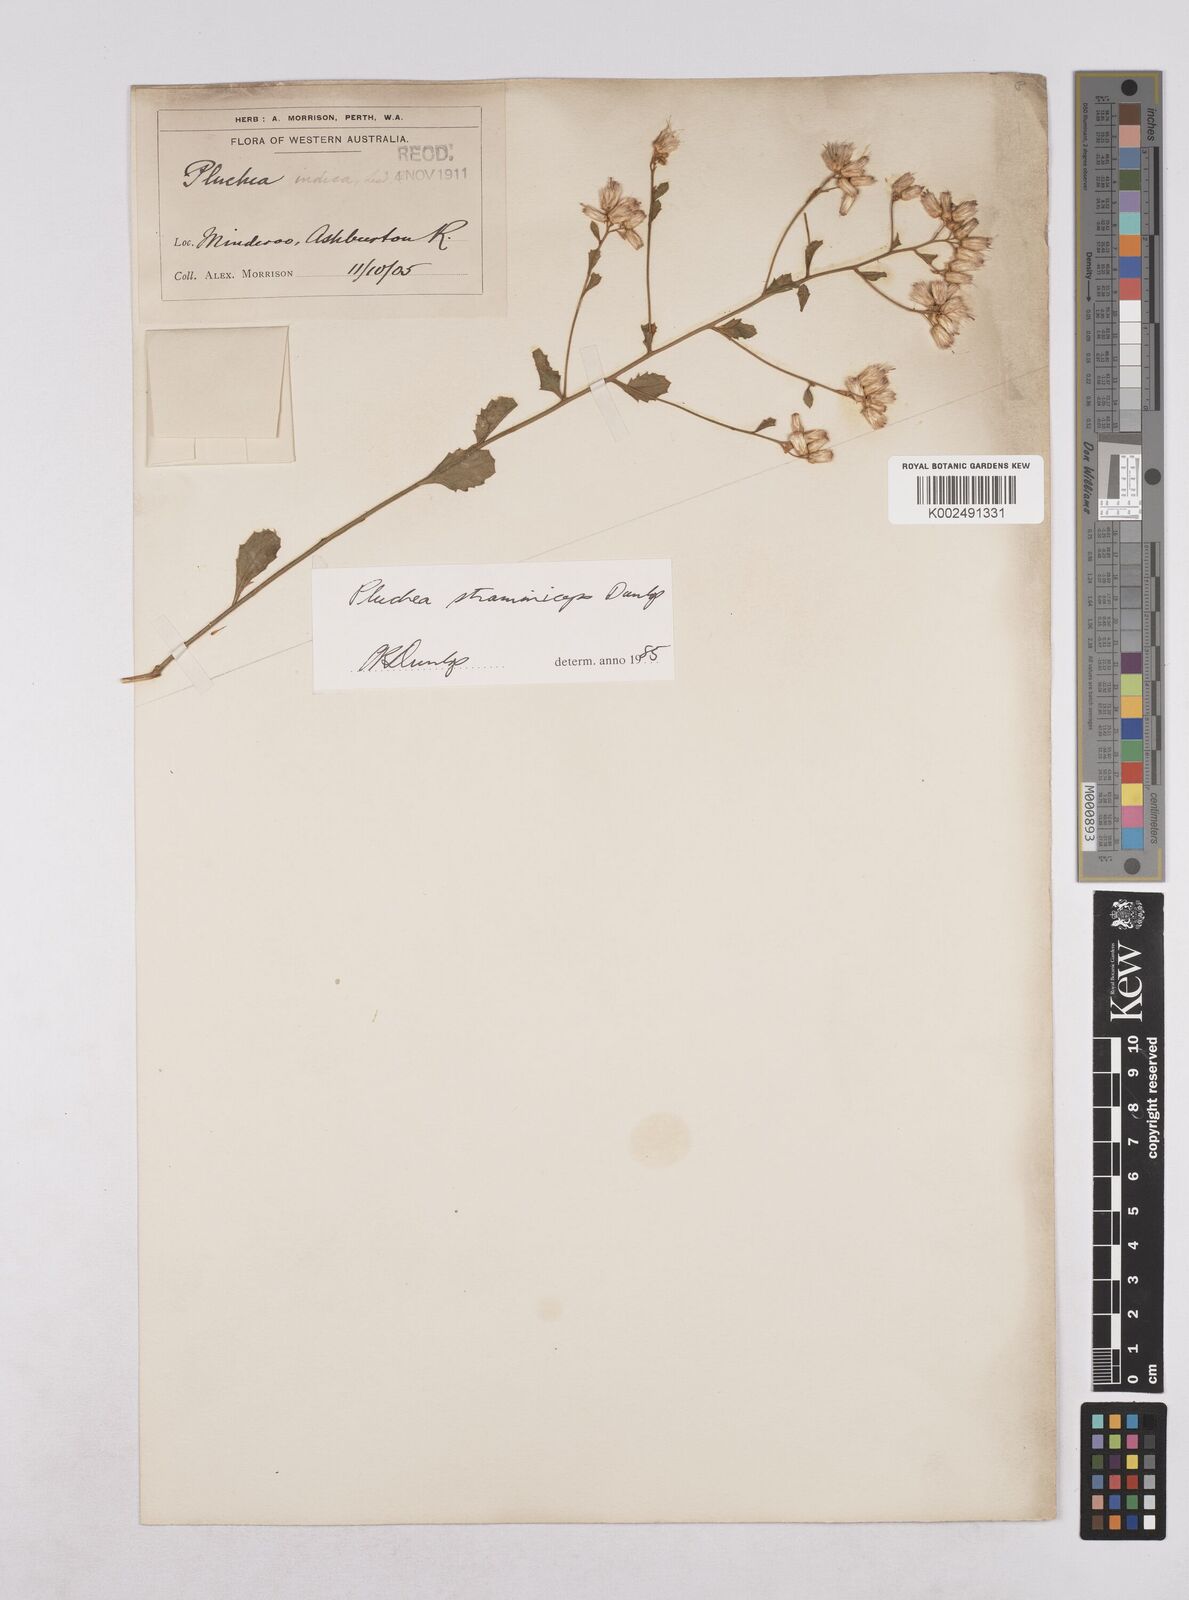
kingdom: Plantae
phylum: Tracheophyta
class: Magnoliopsida
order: Asterales
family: Asteraceae
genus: Pluchea
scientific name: Pluchea dunlopii
